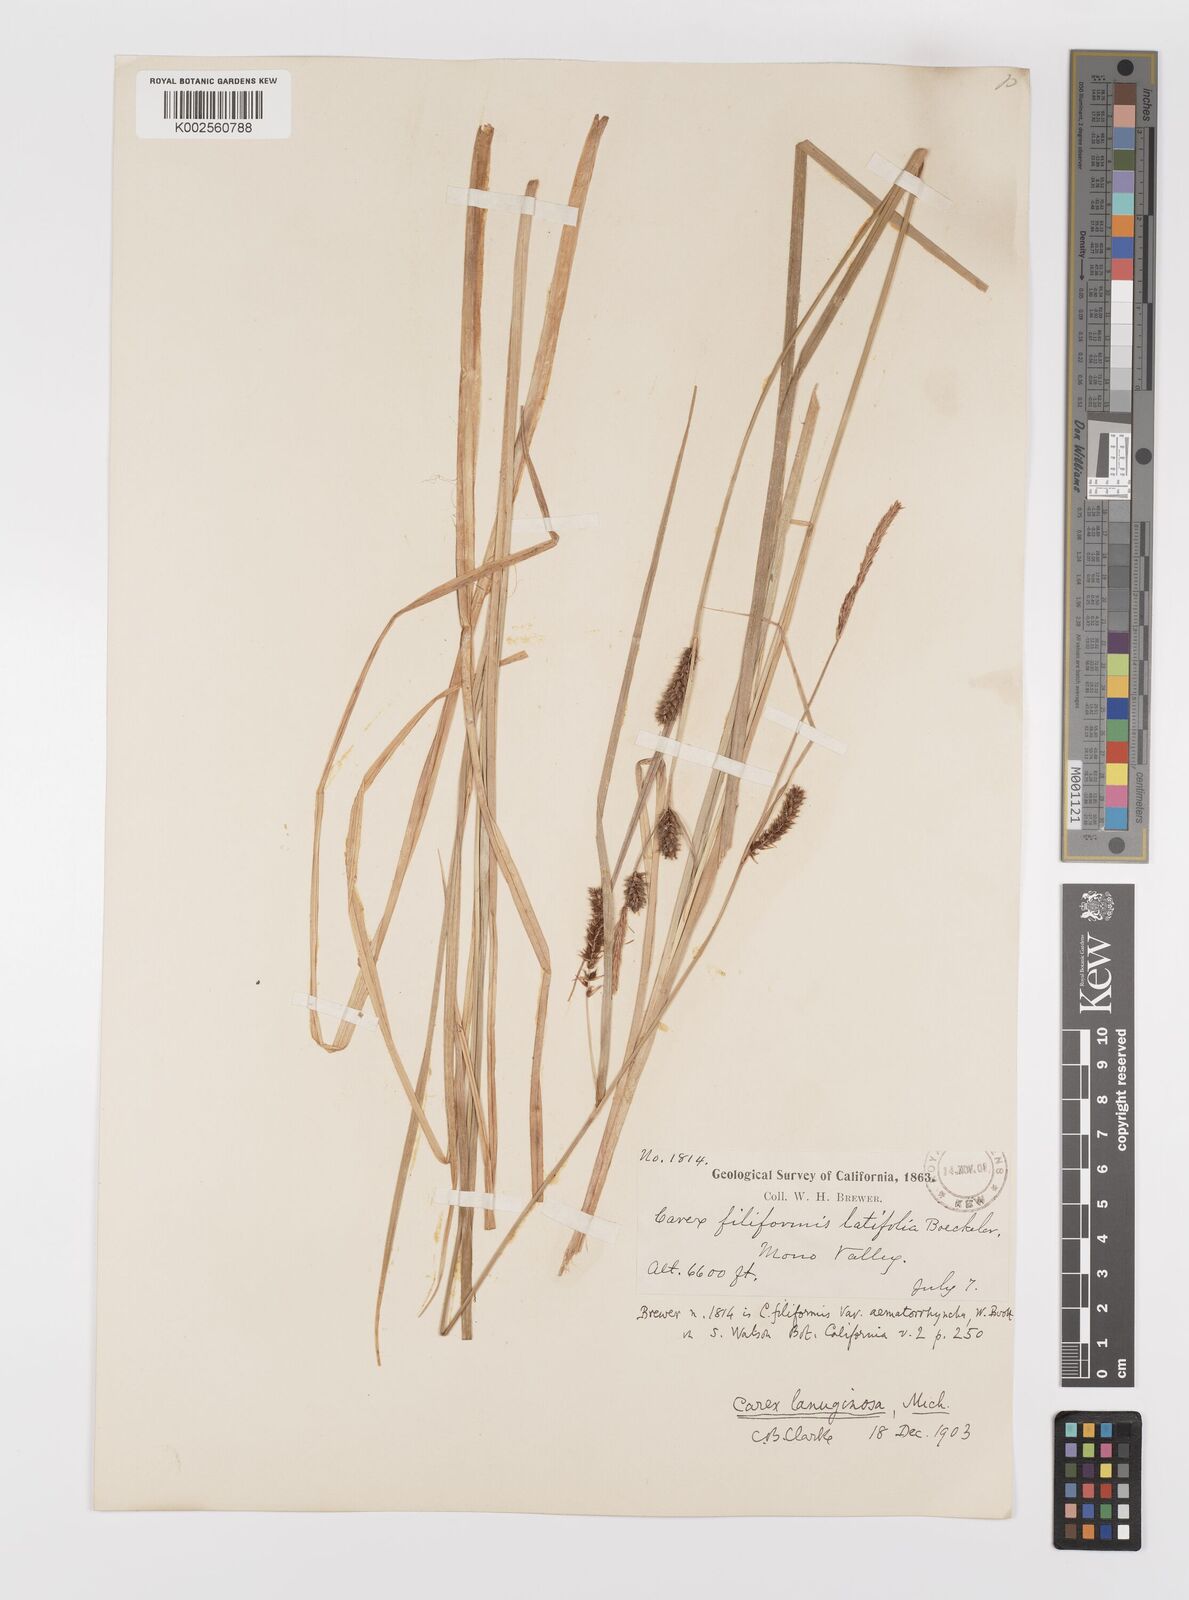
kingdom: Plantae
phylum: Tracheophyta
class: Liliopsida
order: Poales
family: Cyperaceae
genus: Carex
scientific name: Carex lasiocarpa
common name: Slender sedge
